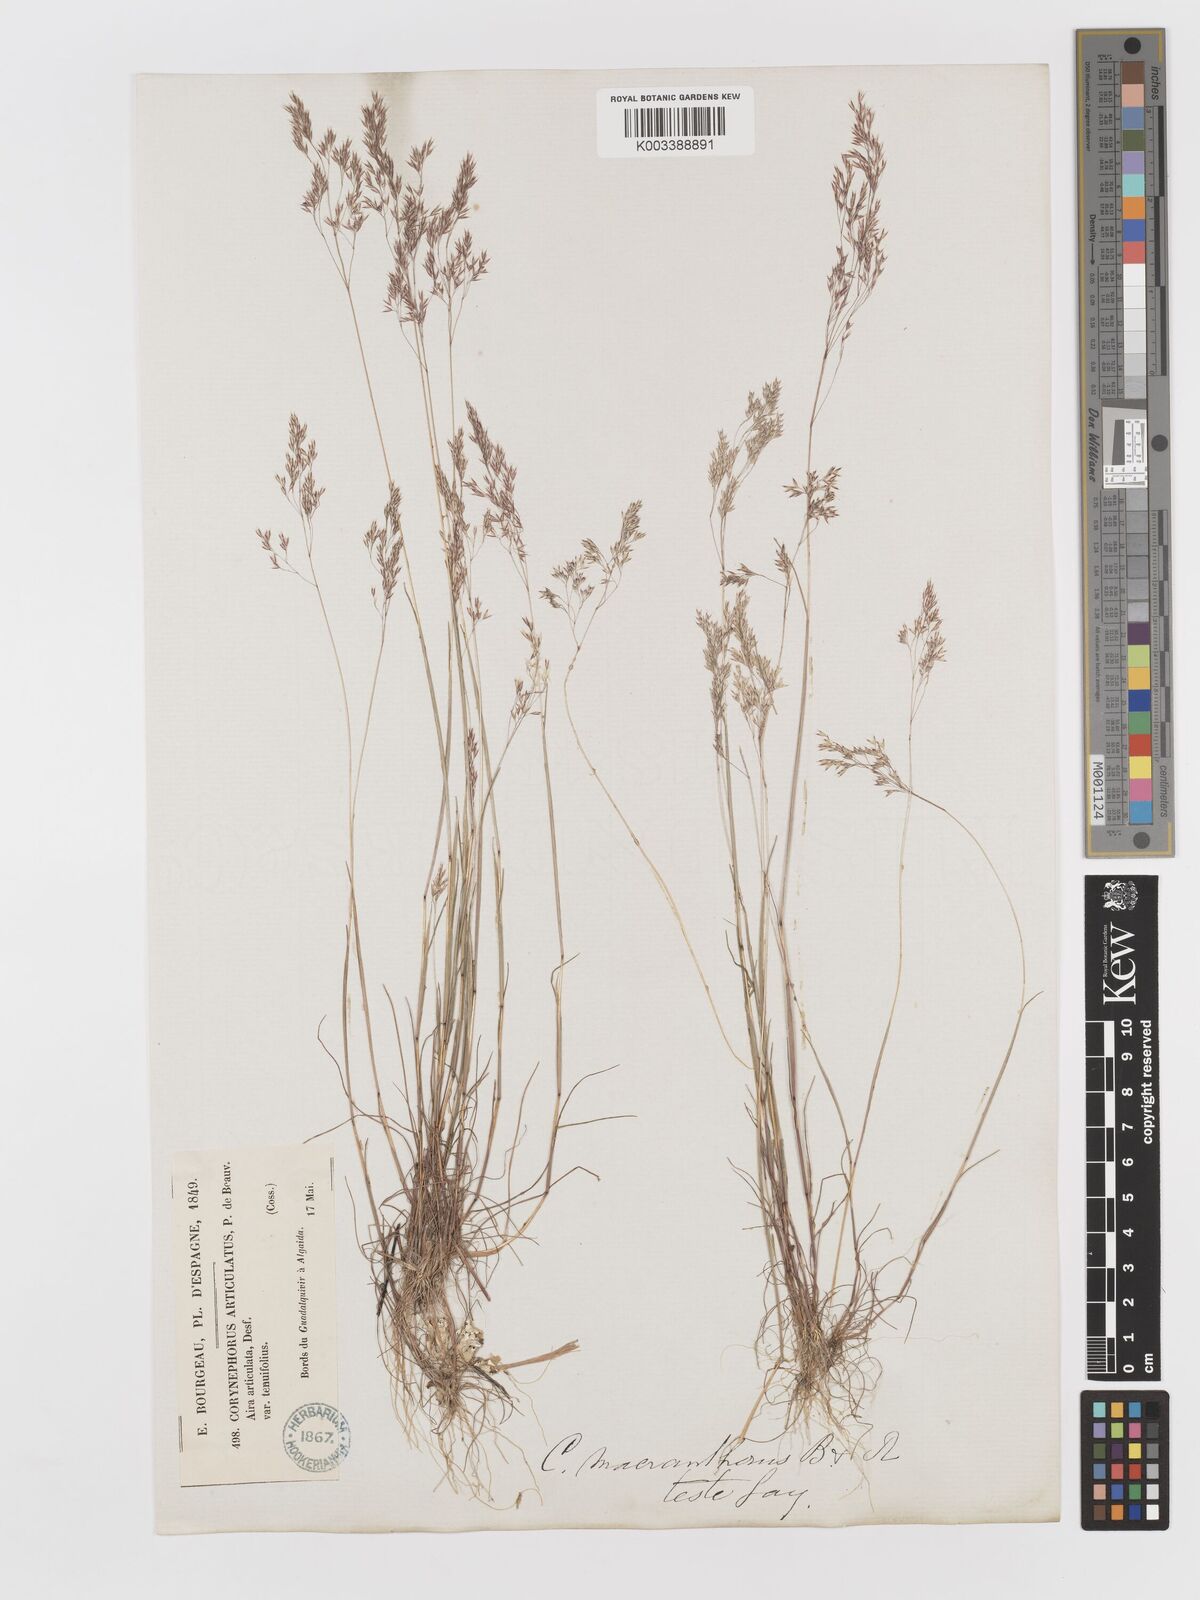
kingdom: Plantae
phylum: Tracheophyta
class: Liliopsida
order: Poales
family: Poaceae
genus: Corynephorus
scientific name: Corynephorus macrantherus
